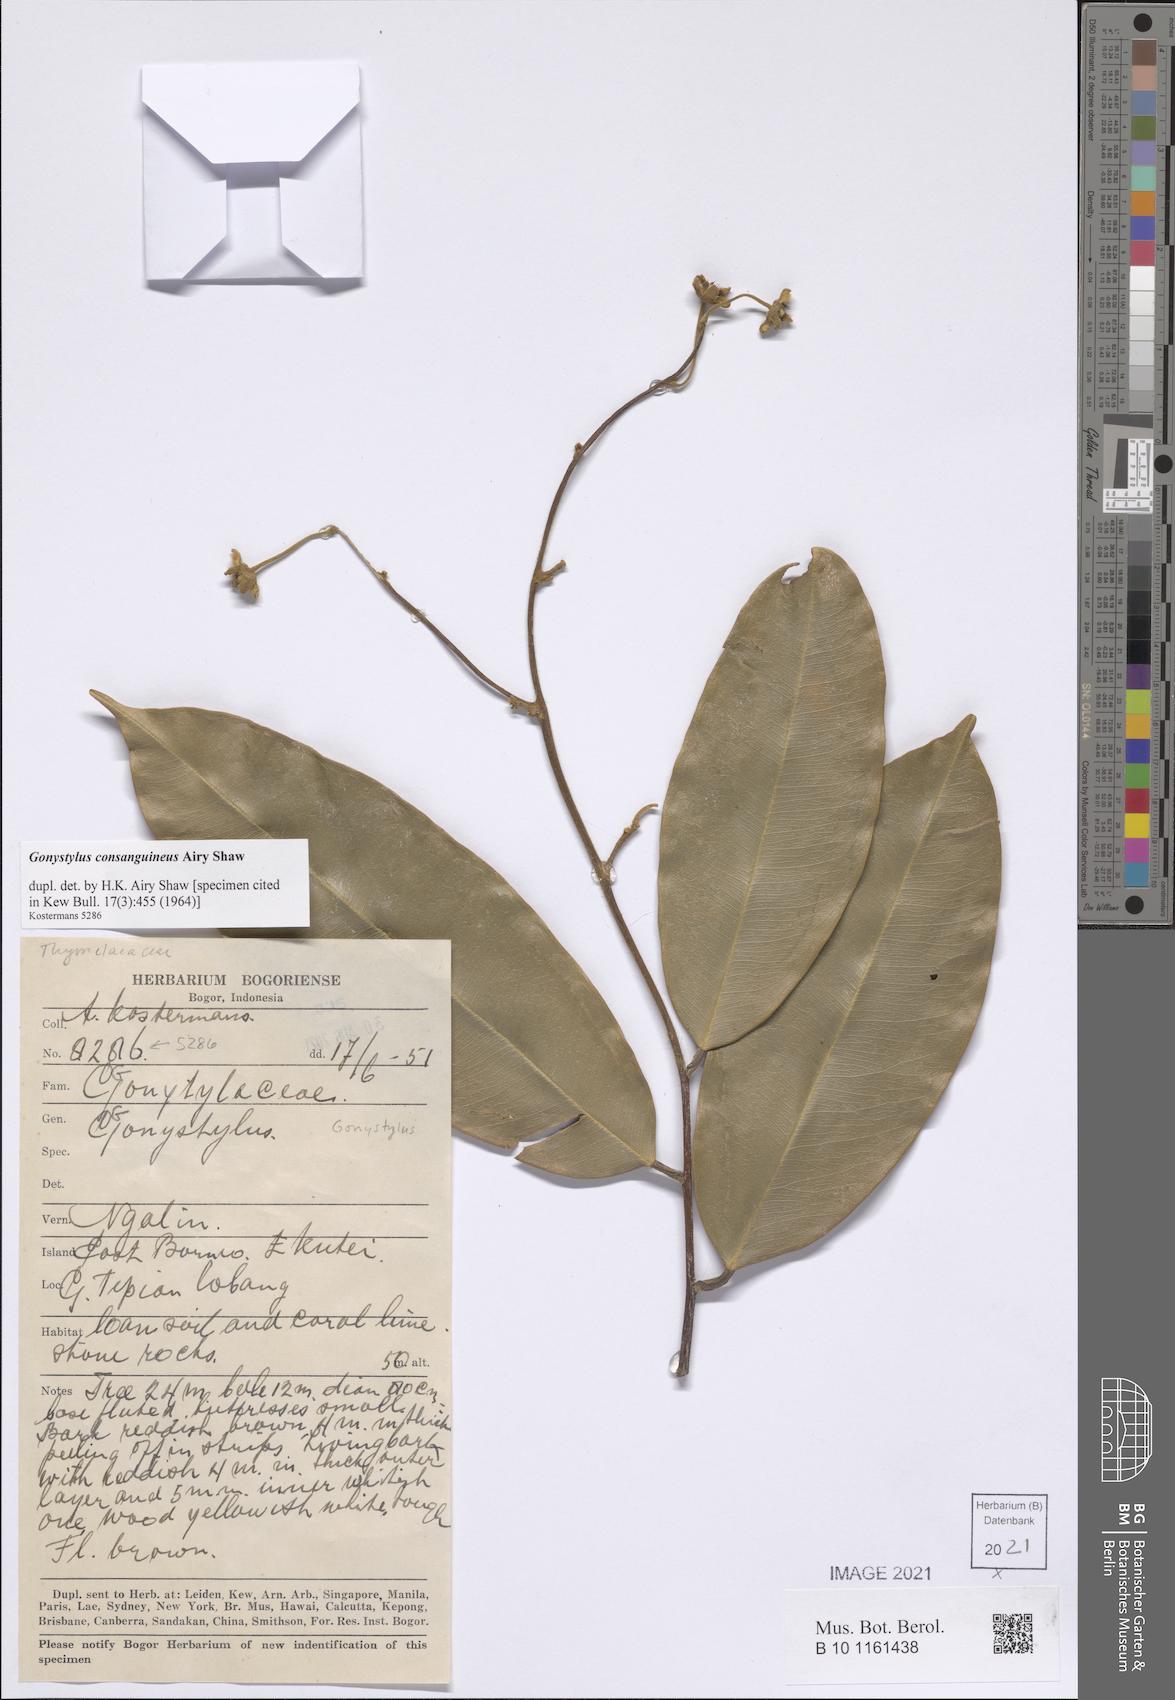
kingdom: Plantae
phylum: Tracheophyta
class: Magnoliopsida
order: Malvales
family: Thymelaeaceae
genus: Gonystylus
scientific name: Gonystylus consanguineus
